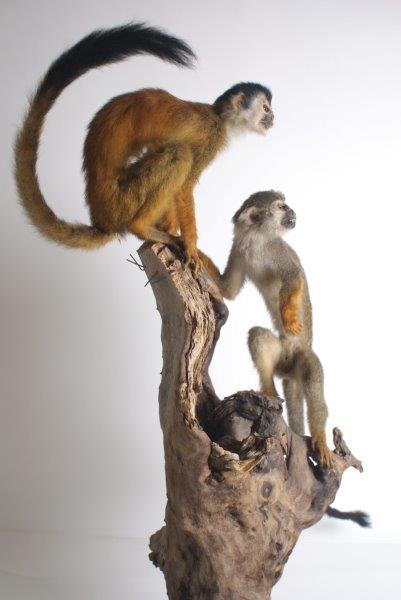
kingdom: Animalia
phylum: Chordata
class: Mammalia
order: Primates
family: Cebidae
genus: Saimiri
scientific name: Saimiri oerstedii
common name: Central American Squirrel Monkey
